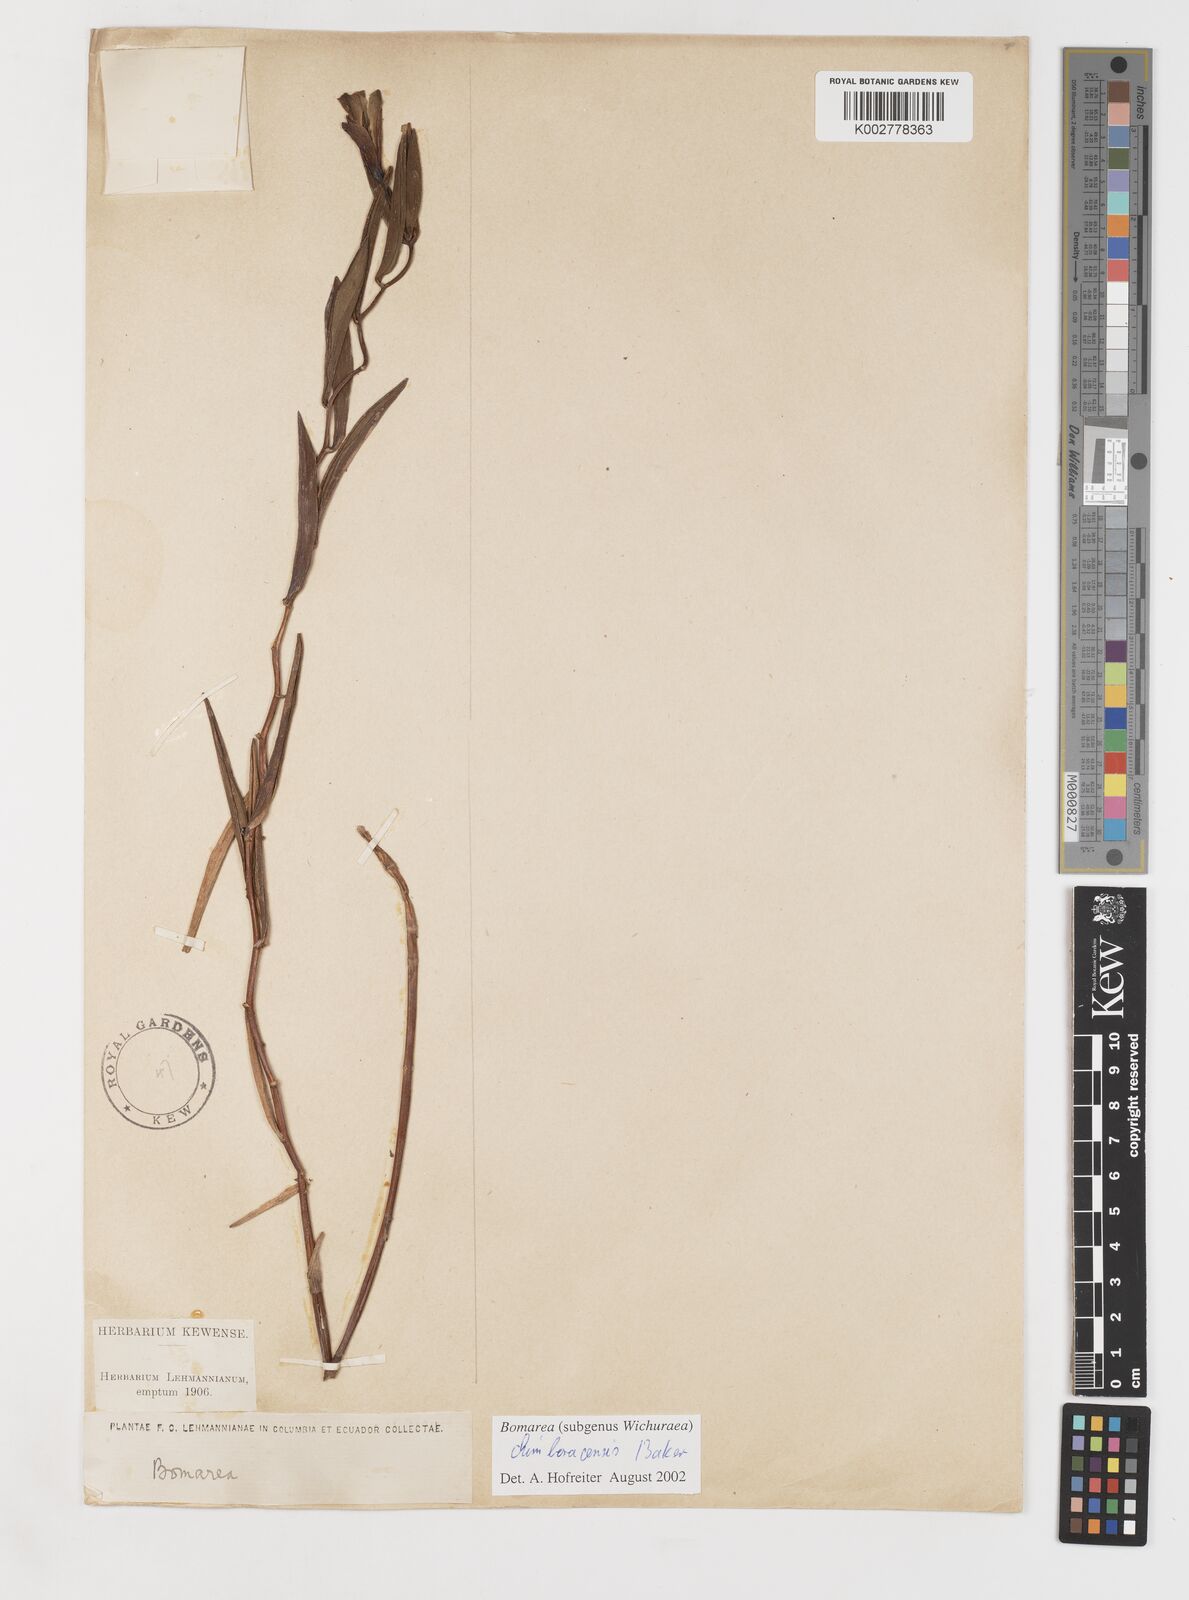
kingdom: Plantae
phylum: Tracheophyta
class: Liliopsida
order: Liliales
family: Alstroemeriaceae
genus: Bomarea
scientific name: Bomarea chimboracensis
